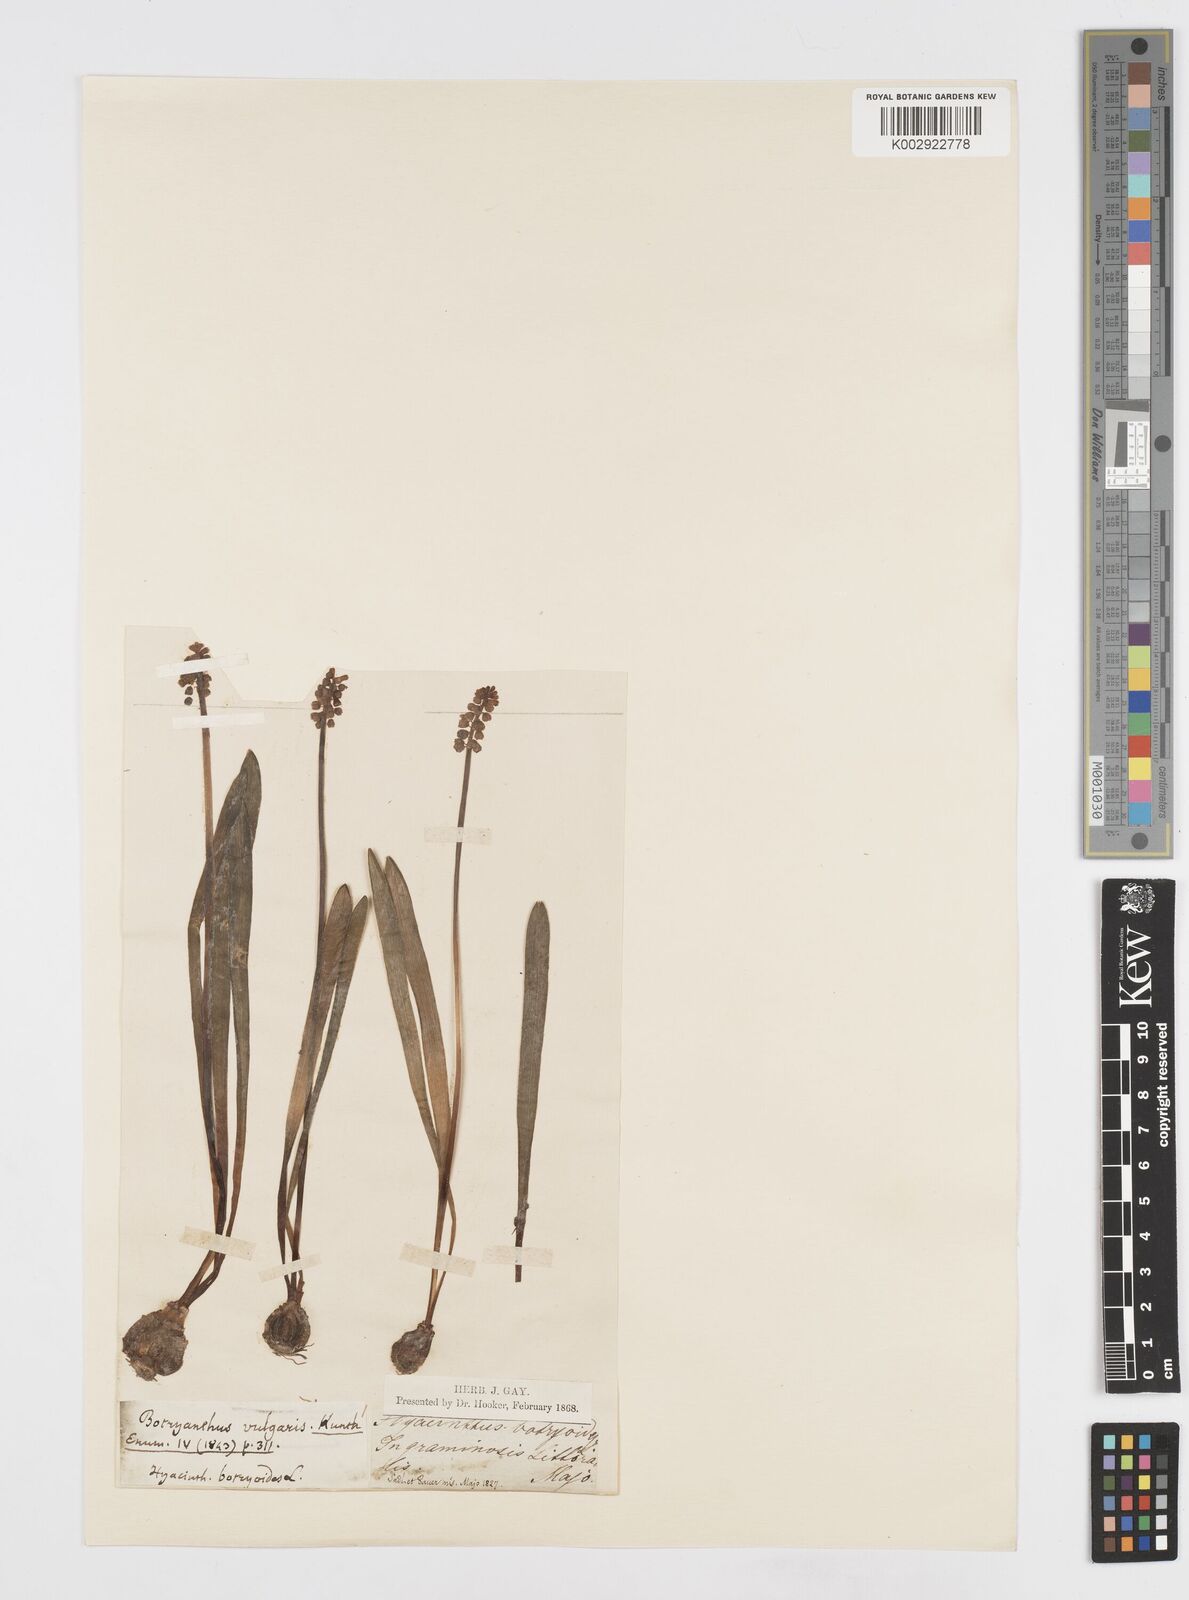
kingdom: Plantae
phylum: Tracheophyta
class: Liliopsida
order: Asparagales
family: Asparagaceae
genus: Muscari
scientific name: Muscari botryoides
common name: Compact grape-hyacinth
